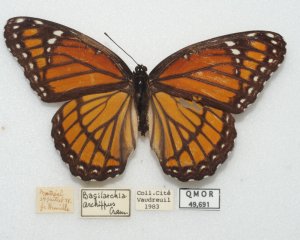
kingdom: Animalia
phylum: Arthropoda
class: Insecta
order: Lepidoptera
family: Nymphalidae
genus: Limenitis
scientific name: Limenitis archippus
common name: Viceroy
